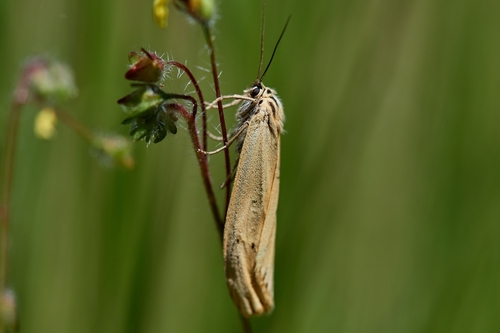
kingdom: Animalia
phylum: Arthropoda
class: Insecta
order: Lepidoptera
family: Erebidae
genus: Coscinia
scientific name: Coscinia Spiris striata
